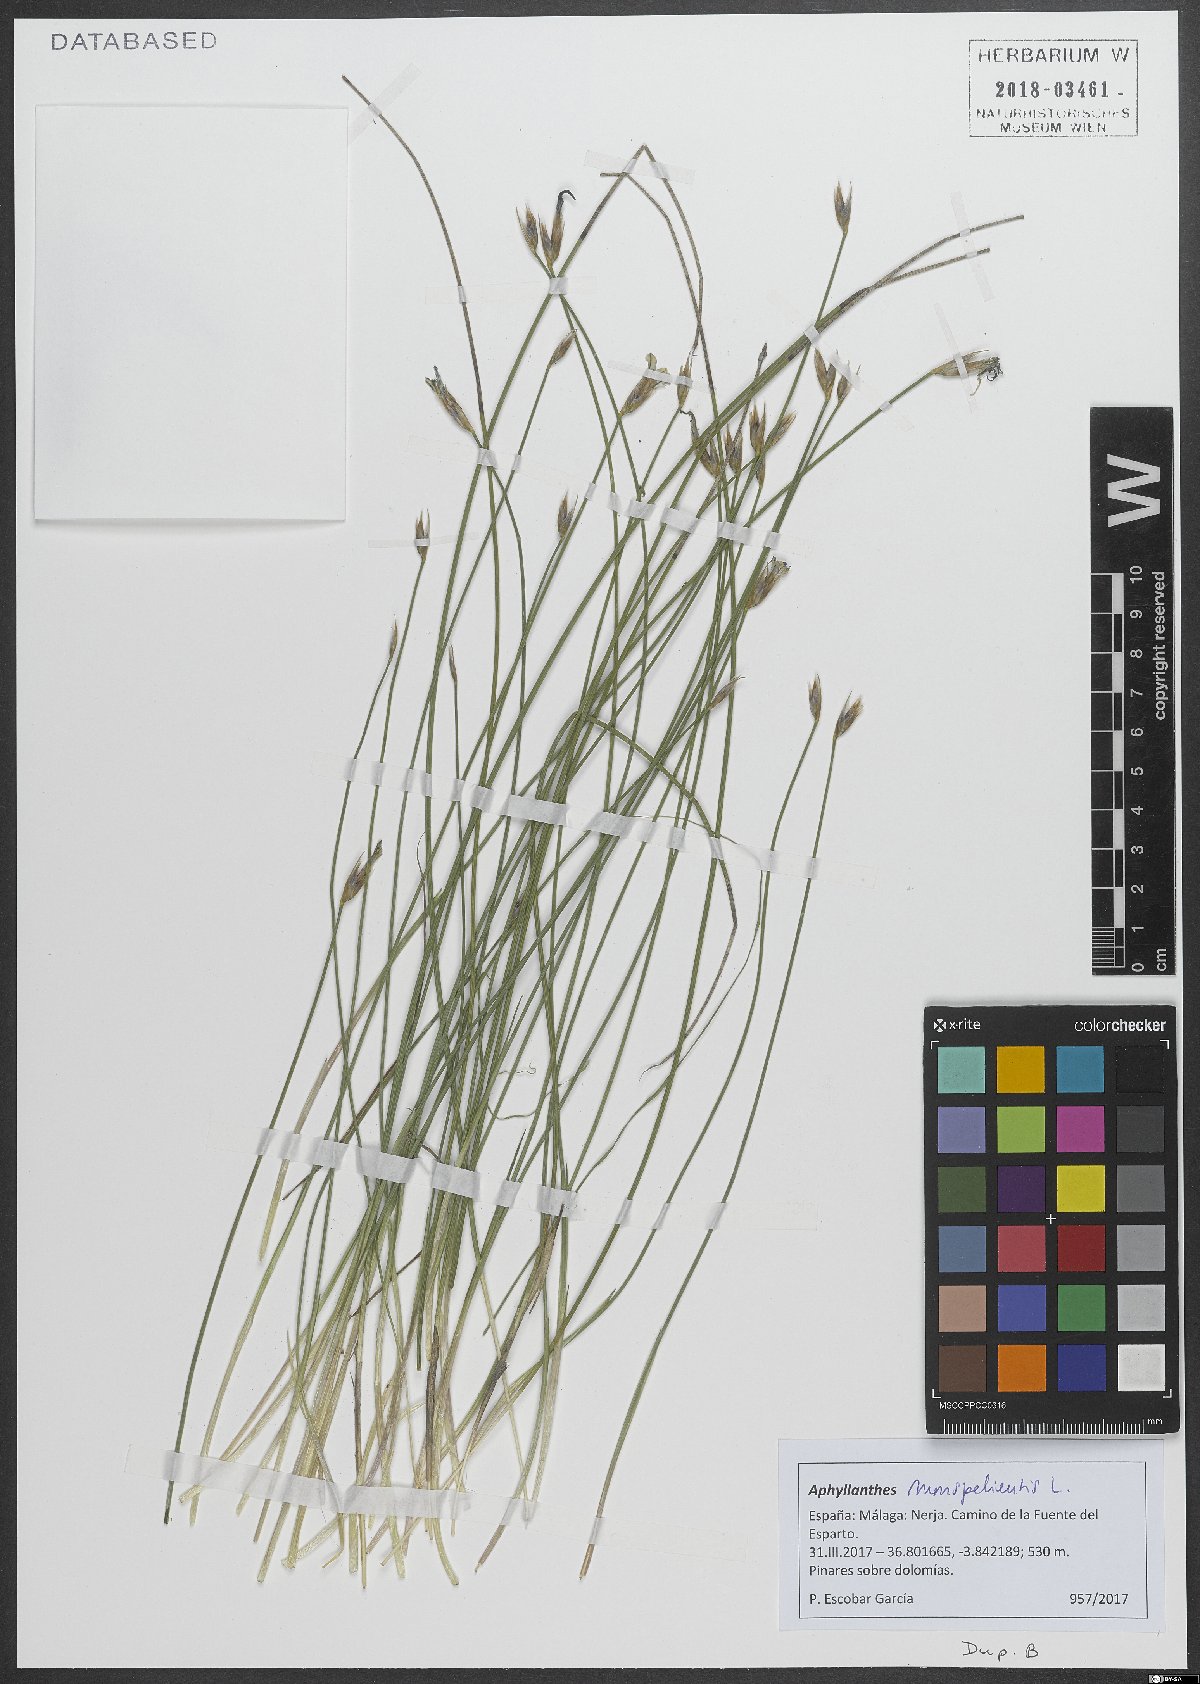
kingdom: Plantae
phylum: Tracheophyta
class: Liliopsida
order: Asparagales
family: Asparagaceae
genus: Aphyllanthes
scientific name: Aphyllanthes monspeliensis
